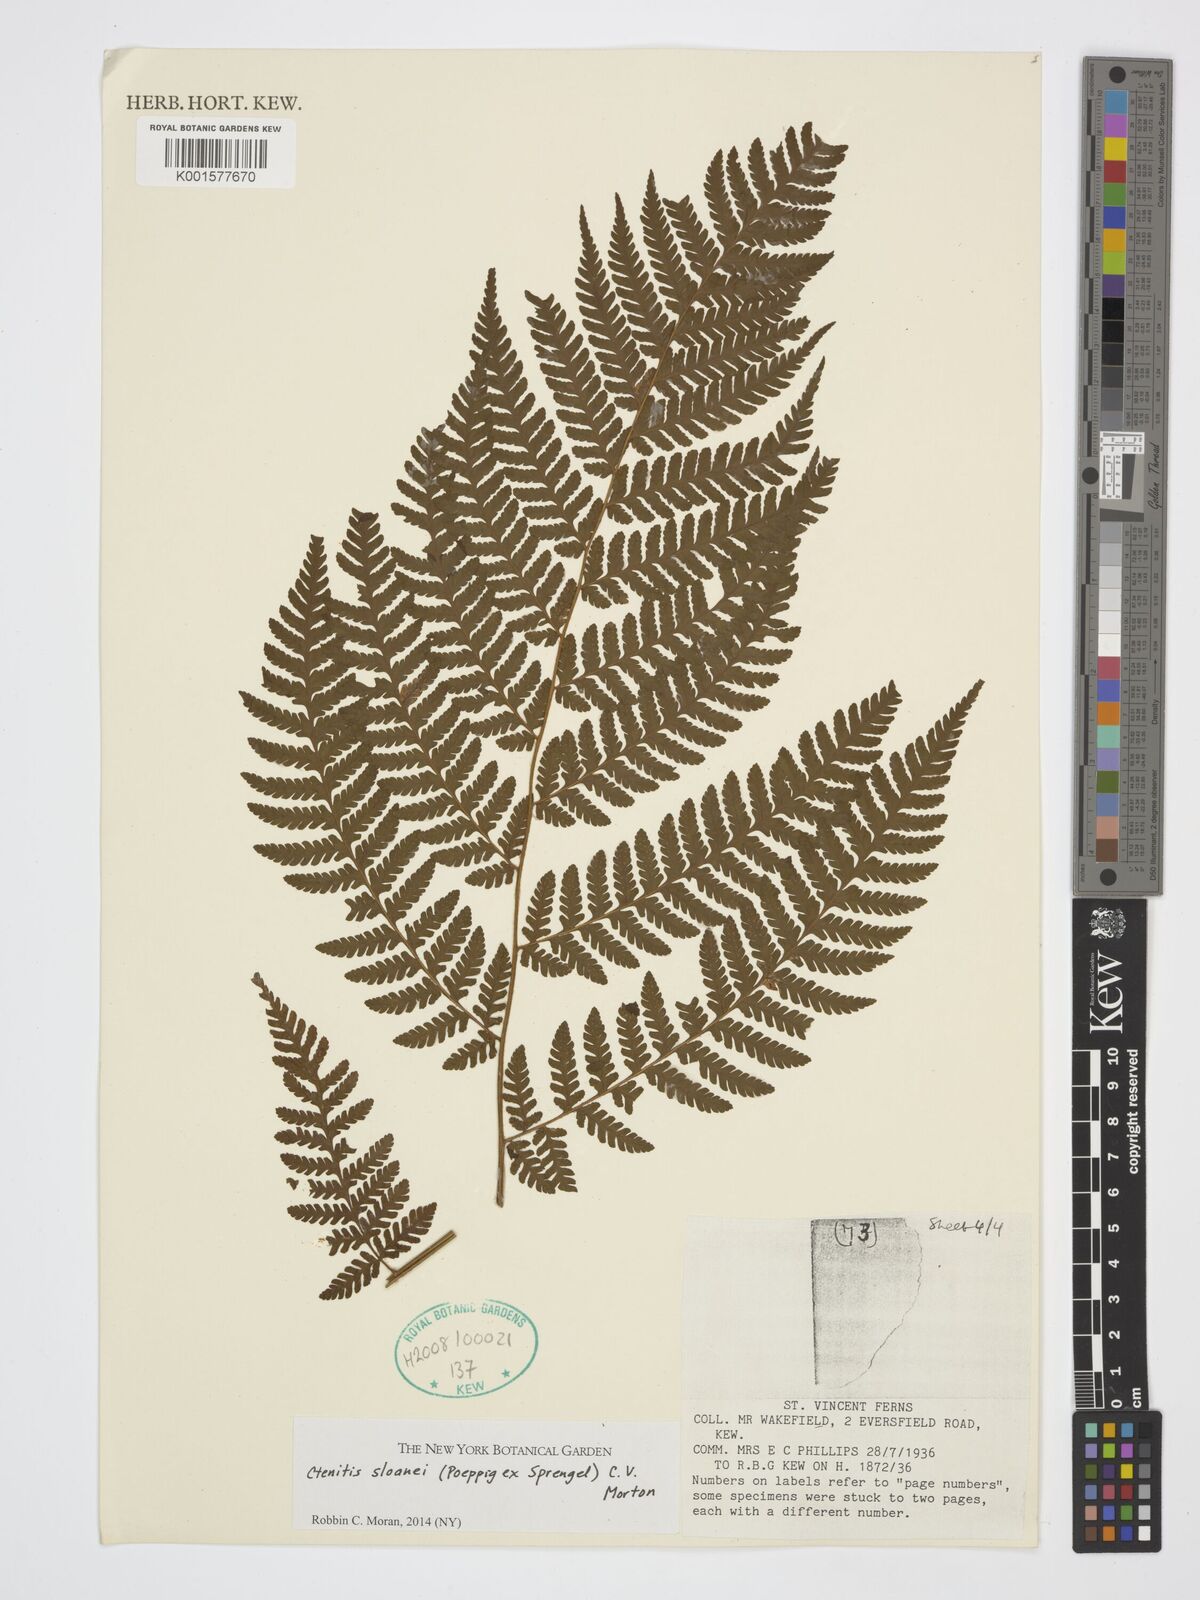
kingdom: Plantae
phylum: Tracheophyta
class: Polypodiopsida
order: Polypodiales
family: Dryopteridaceae
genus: Ctenitis
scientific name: Ctenitis sloanei
